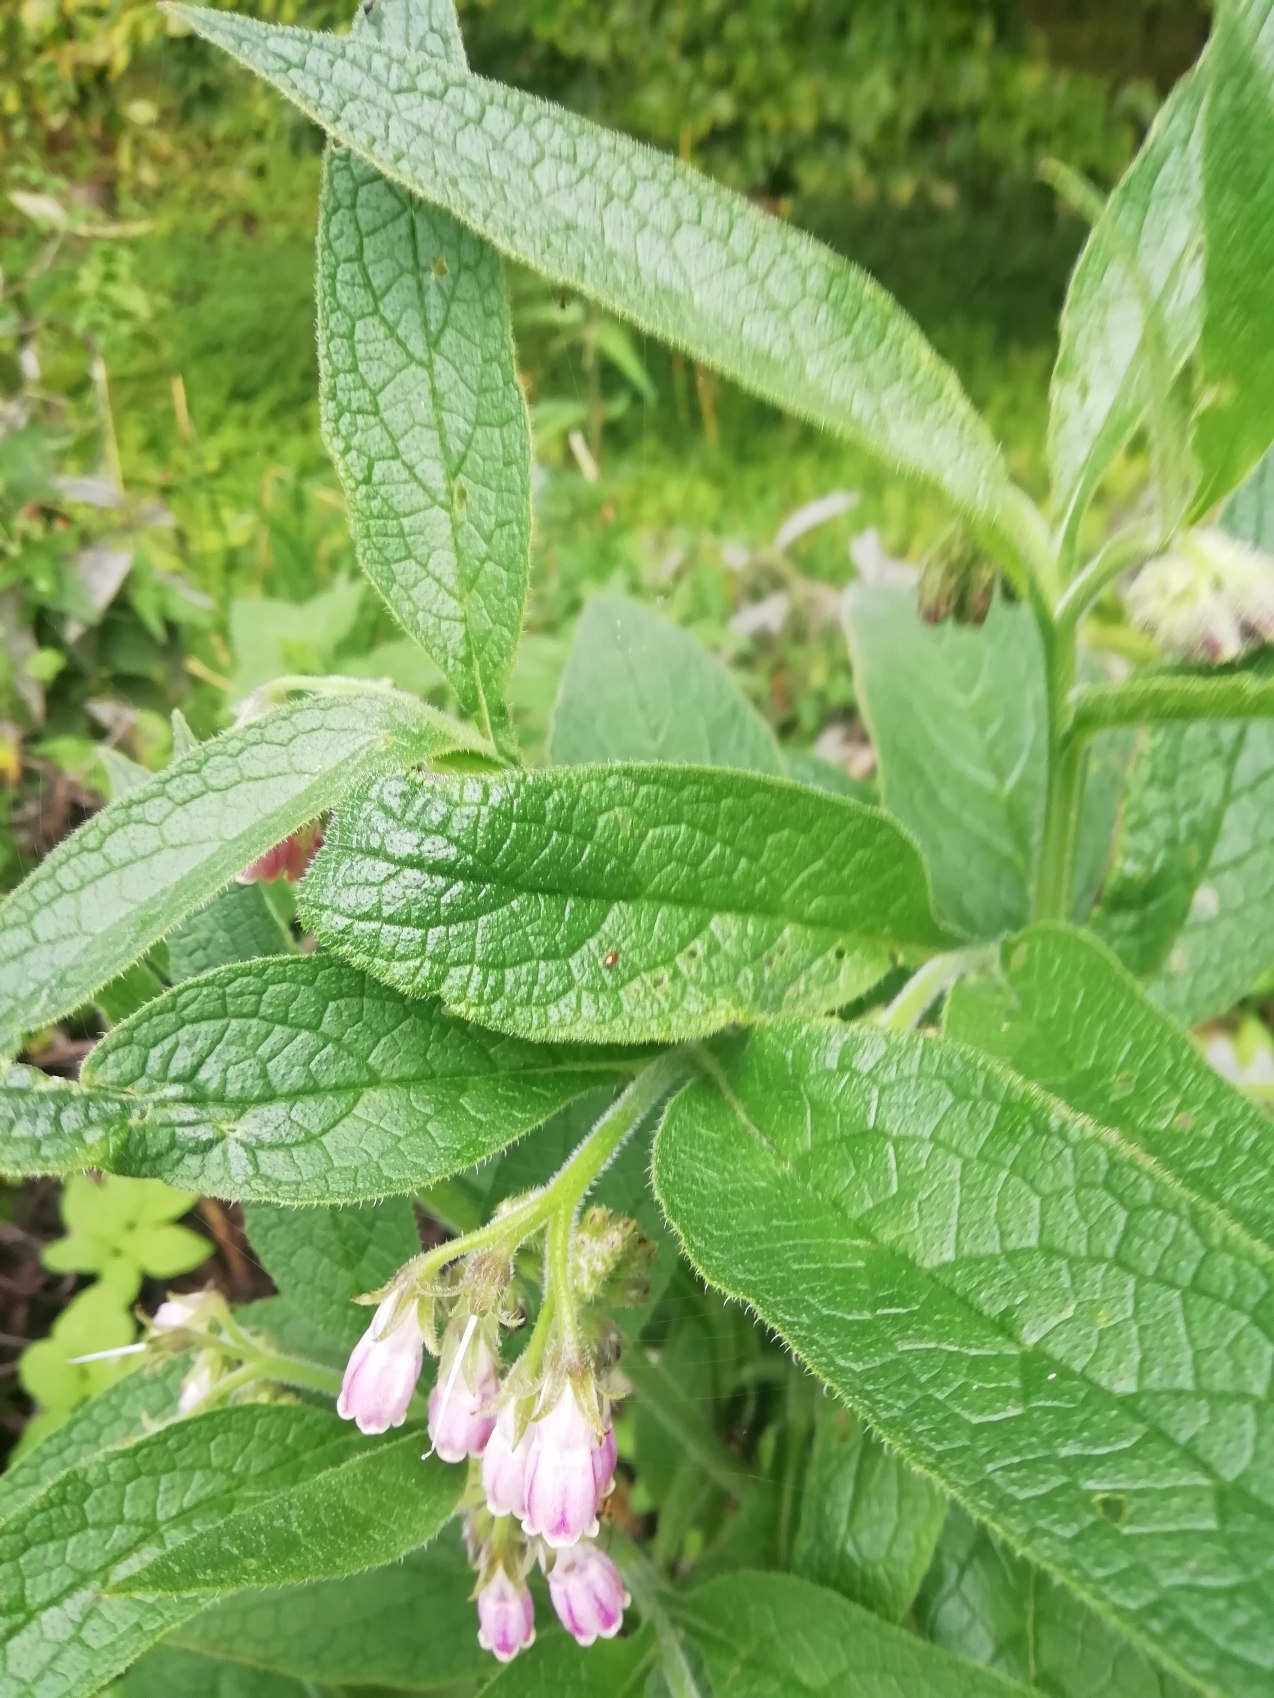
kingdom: Plantae
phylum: Tracheophyta
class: Magnoliopsida
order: Boraginales
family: Boraginaceae
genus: Symphytum
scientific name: Symphytum uplandicum
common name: Foder-kulsukker
